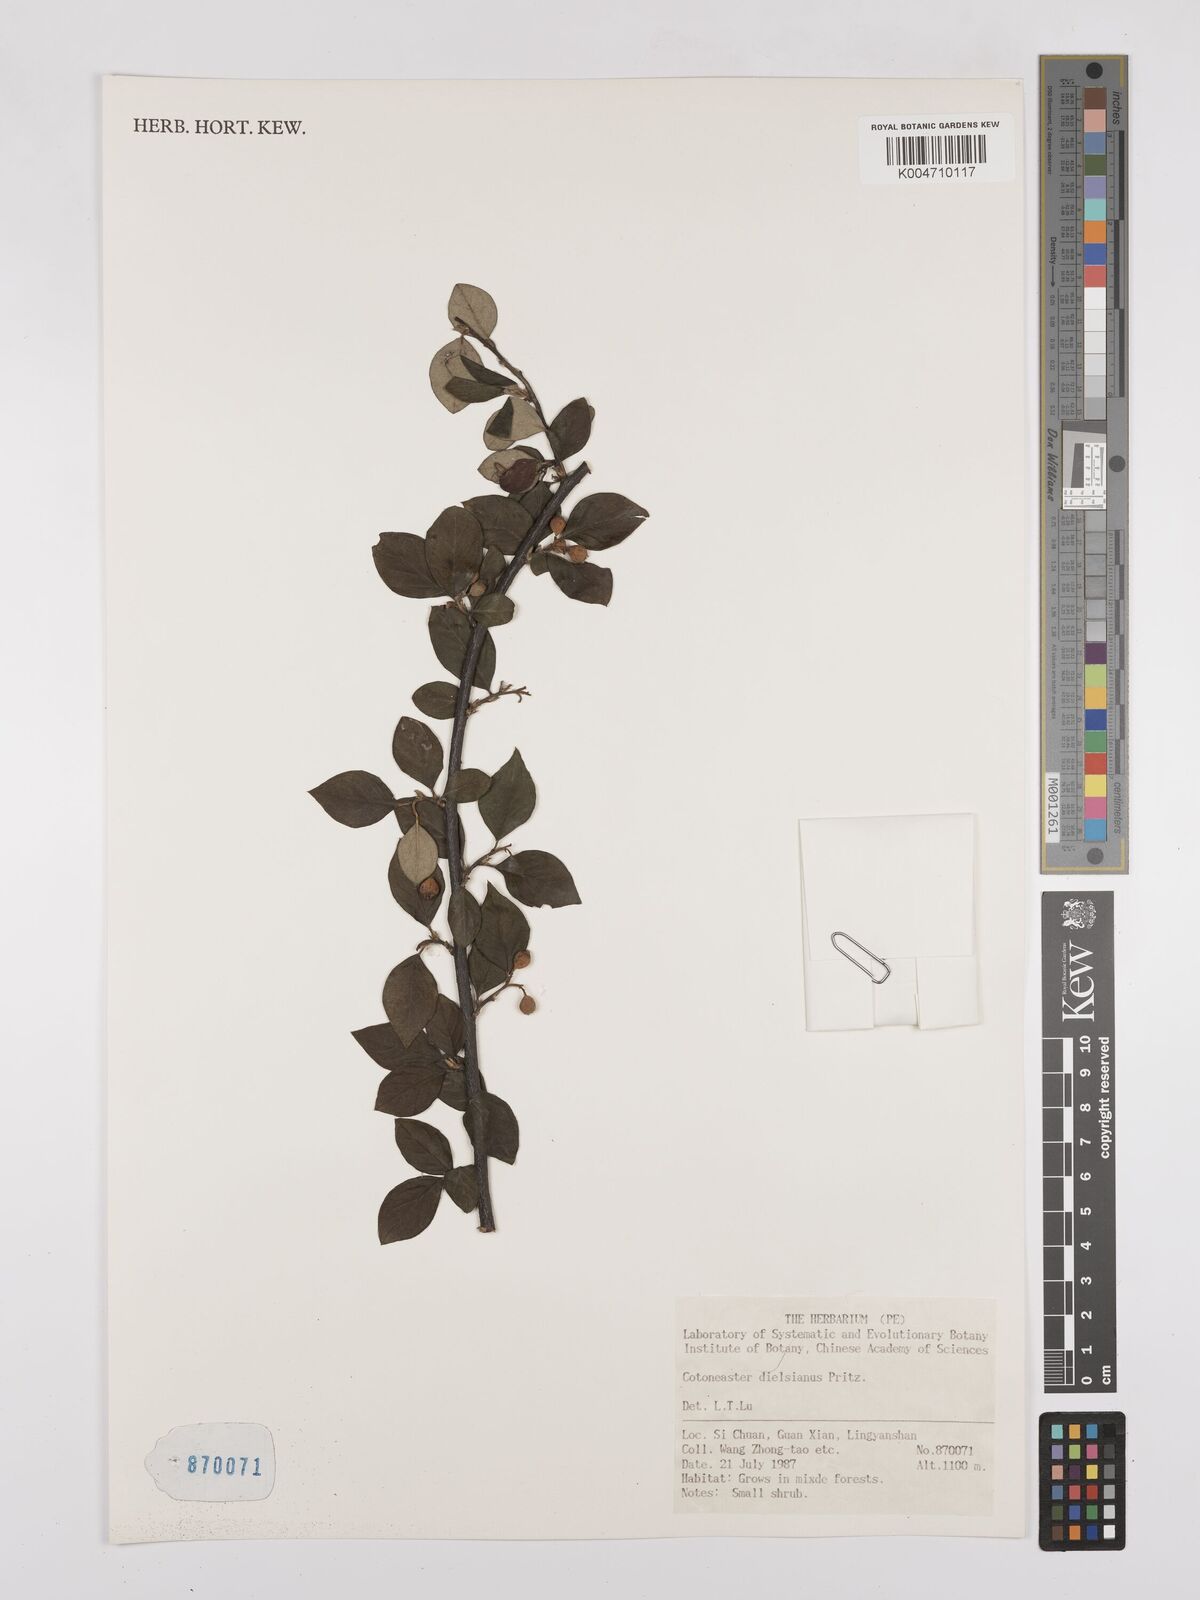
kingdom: Plantae
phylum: Tracheophyta
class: Magnoliopsida
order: Rosales
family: Rosaceae
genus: Cotoneaster
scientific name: Cotoneaster dielsianus
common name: Diels's cotoneaster
